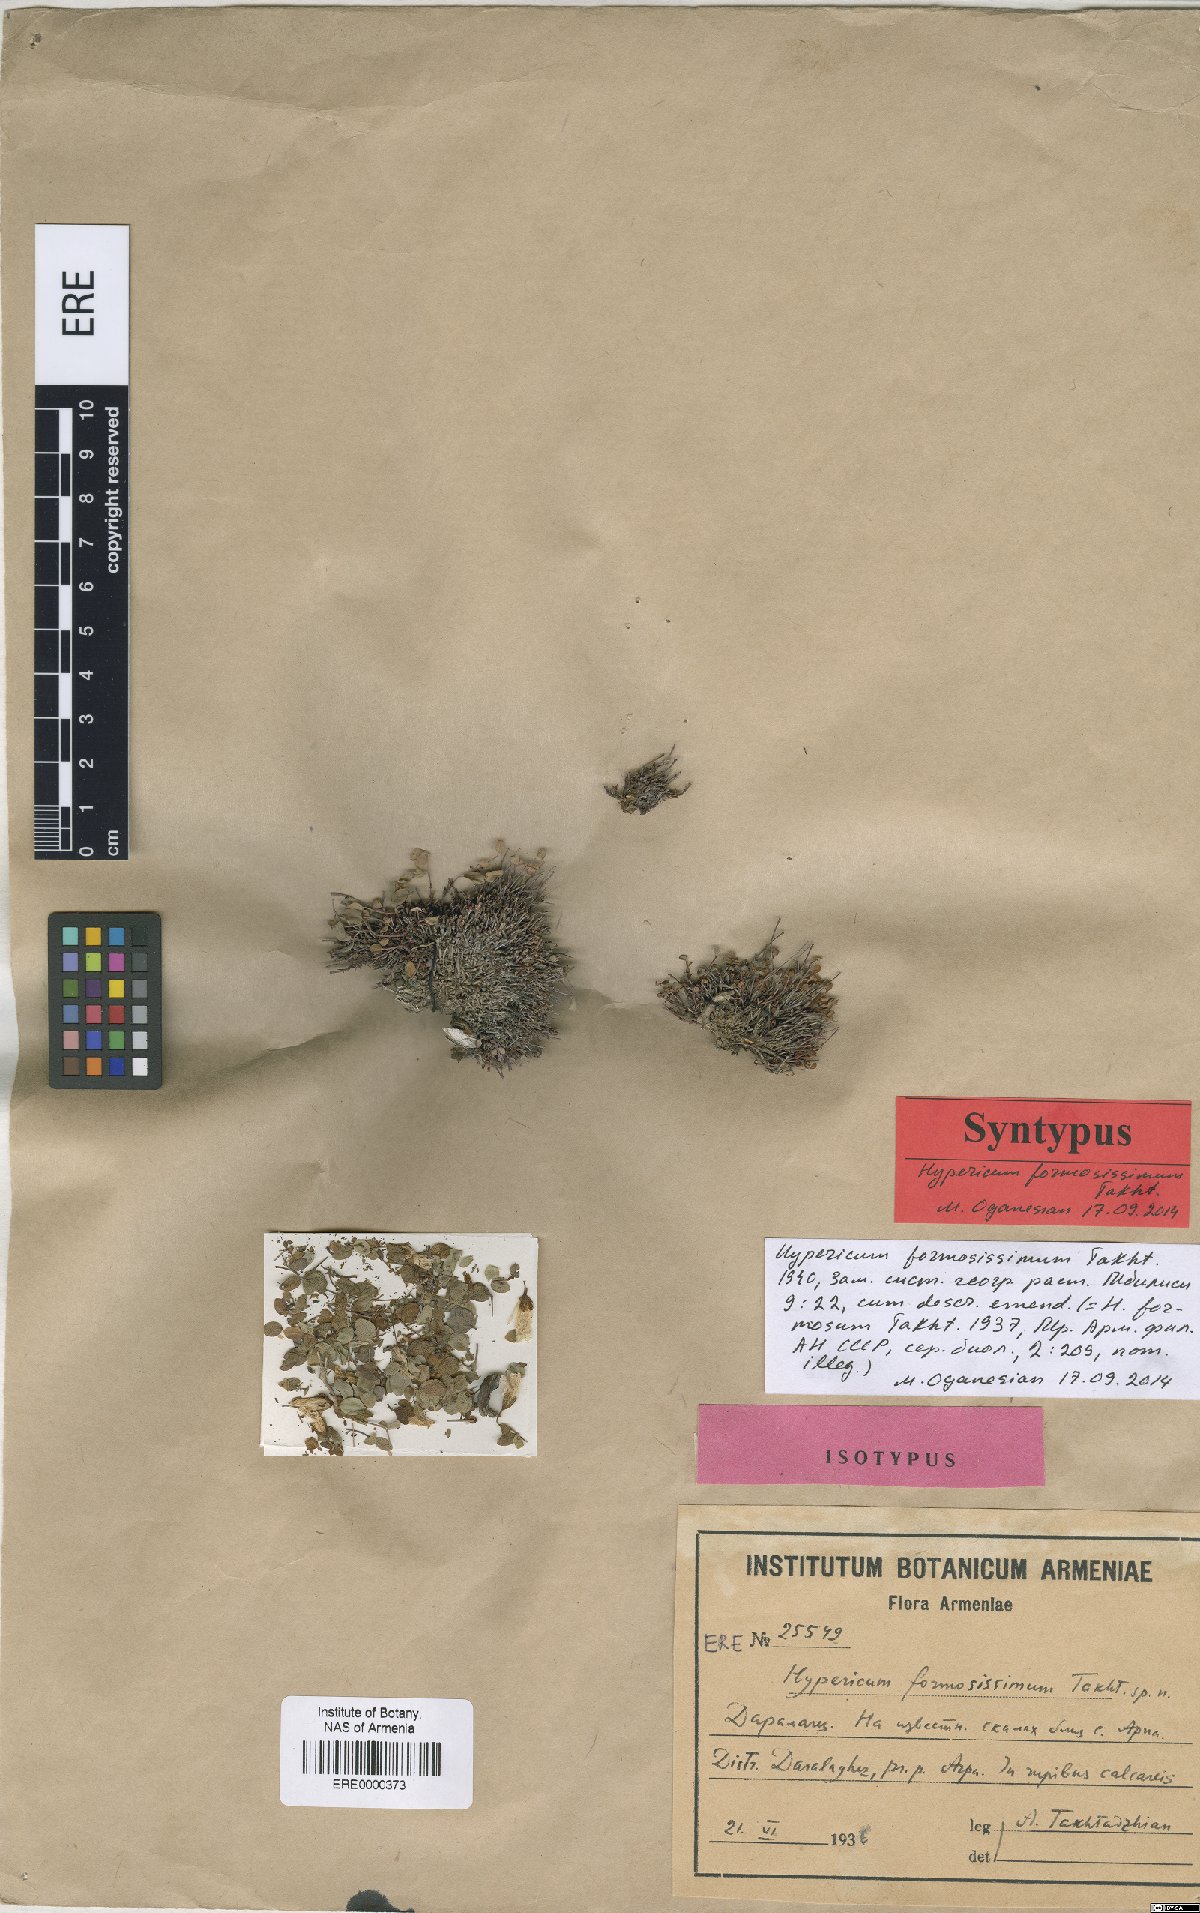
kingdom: Plantae
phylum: Tracheophyta
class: Magnoliopsida
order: Malpighiales
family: Hypericaceae
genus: Hypericum
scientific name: Hypericum formosissimum
